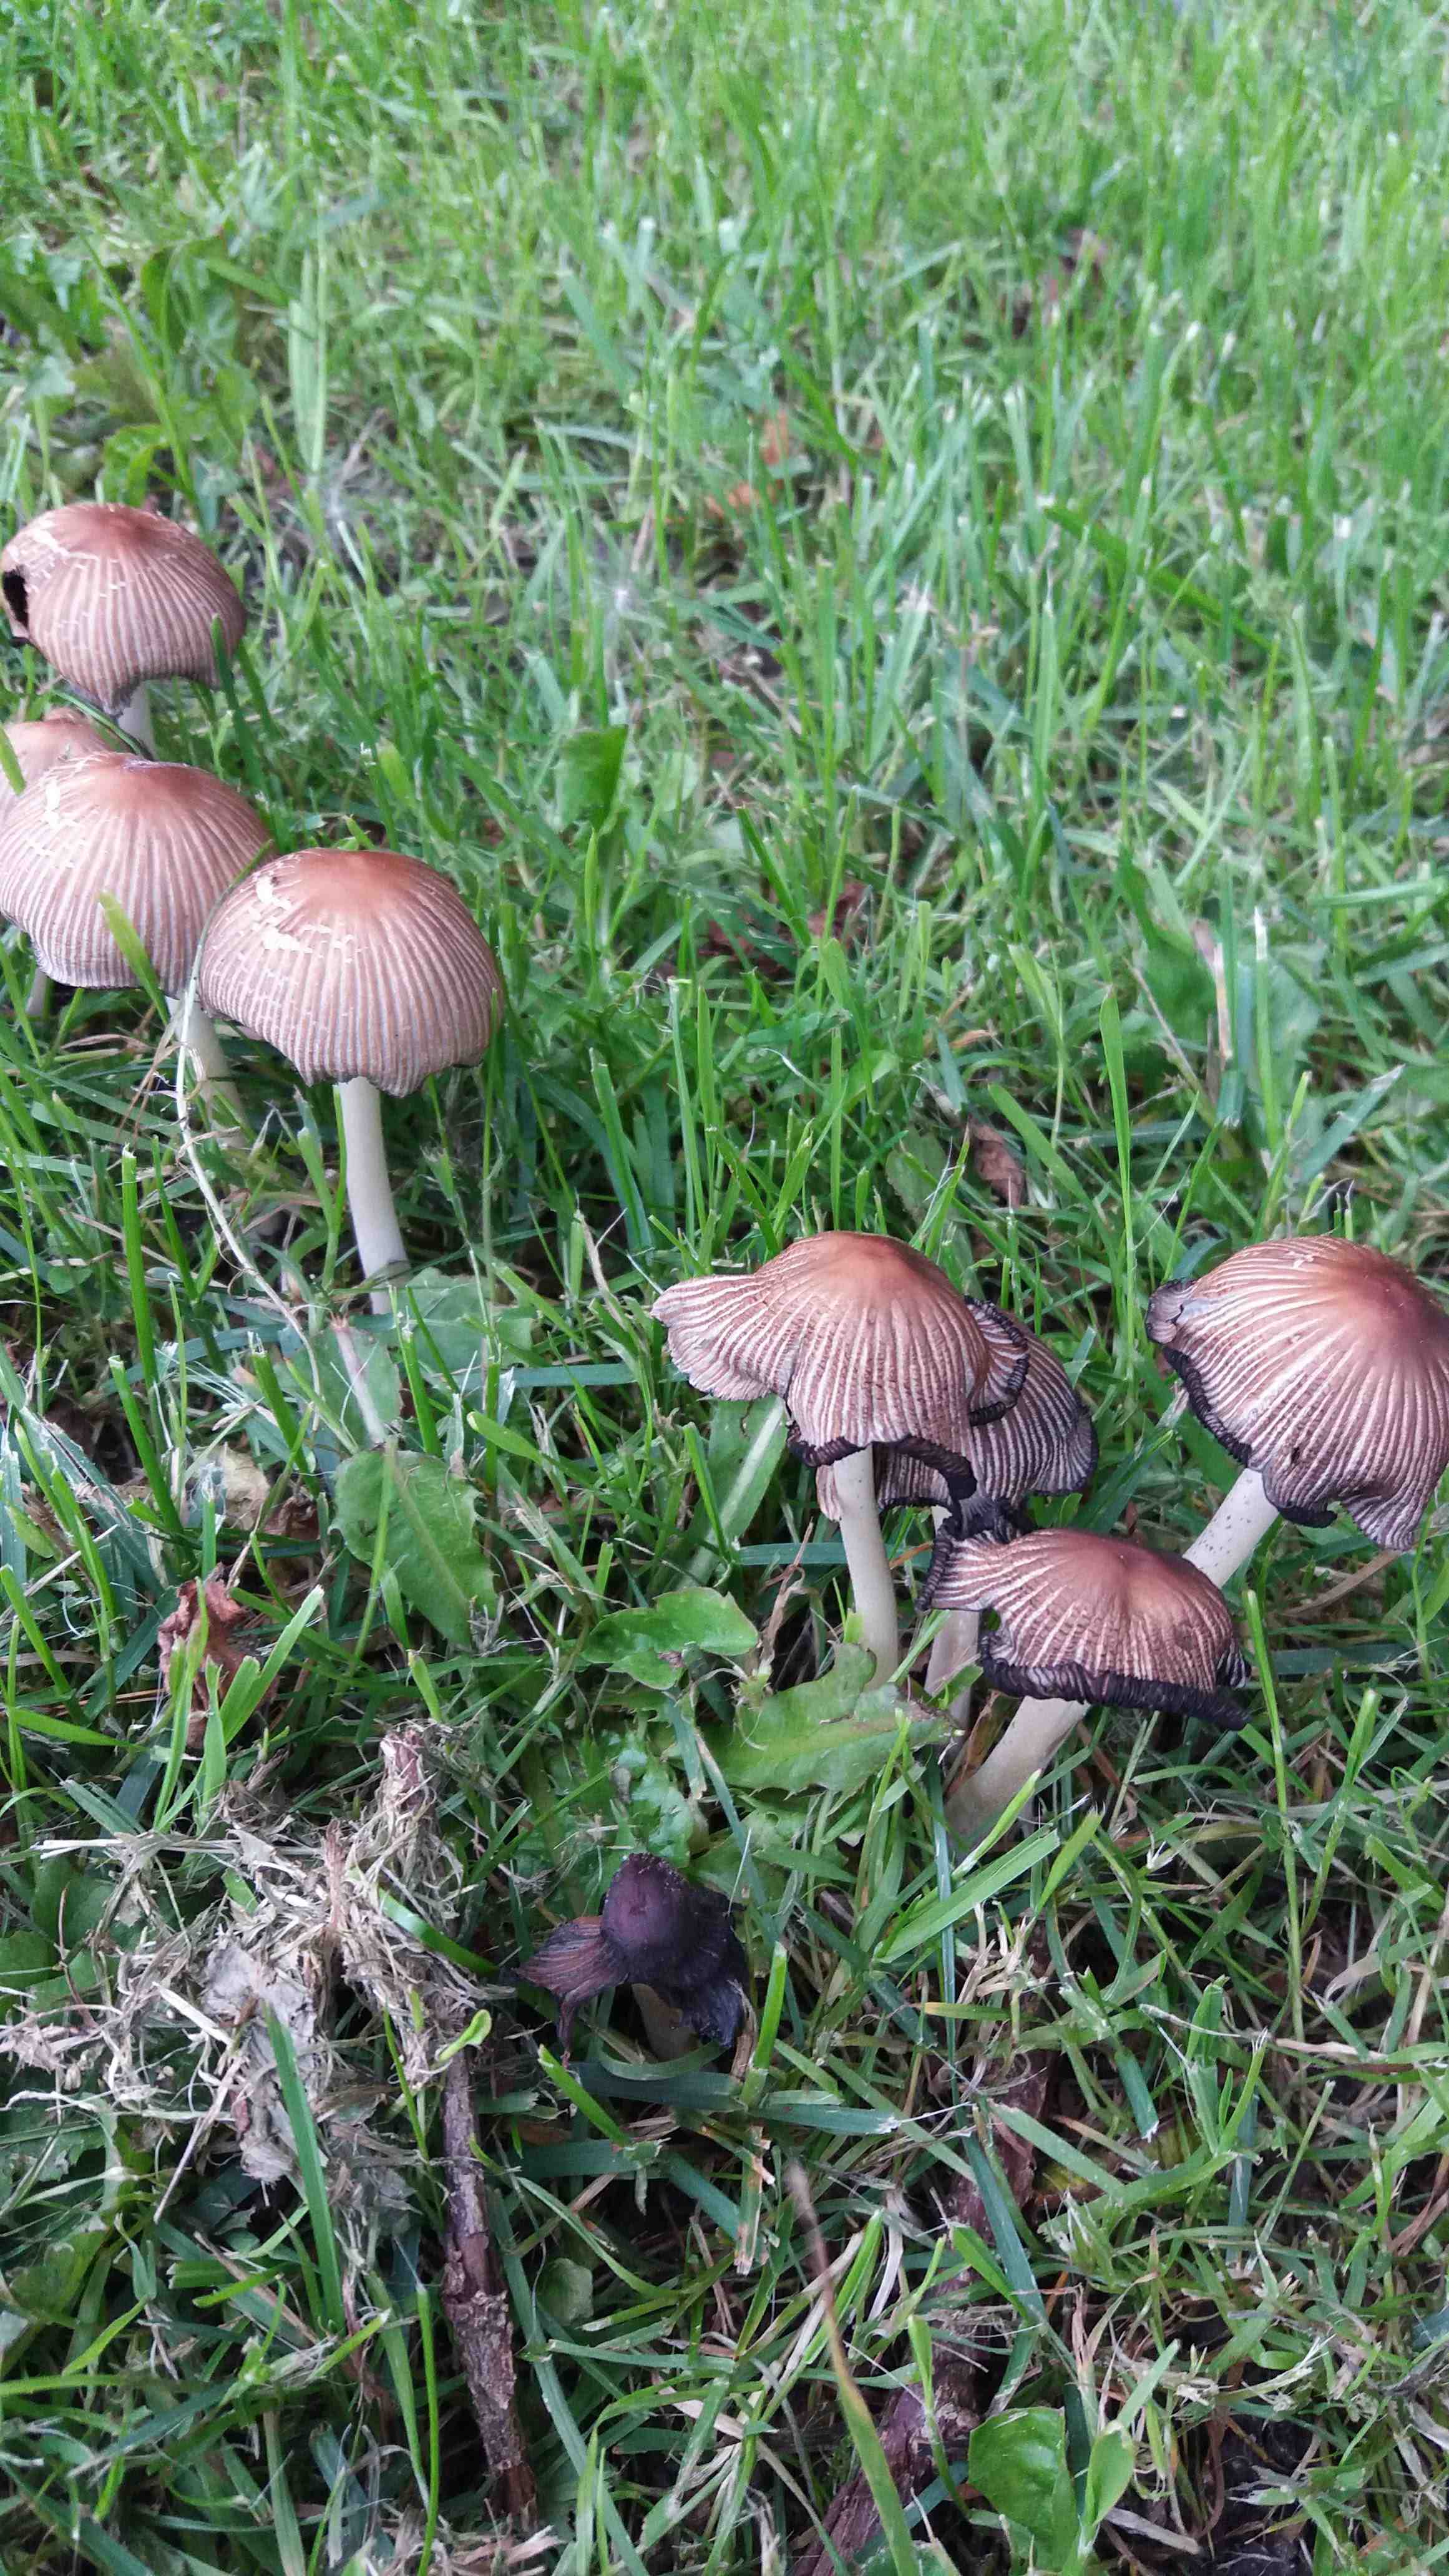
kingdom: Fungi
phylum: Basidiomycota
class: Agaricomycetes
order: Agaricales
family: Psathyrellaceae
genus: Coprinellus
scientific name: Coprinellus
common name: blækhat
